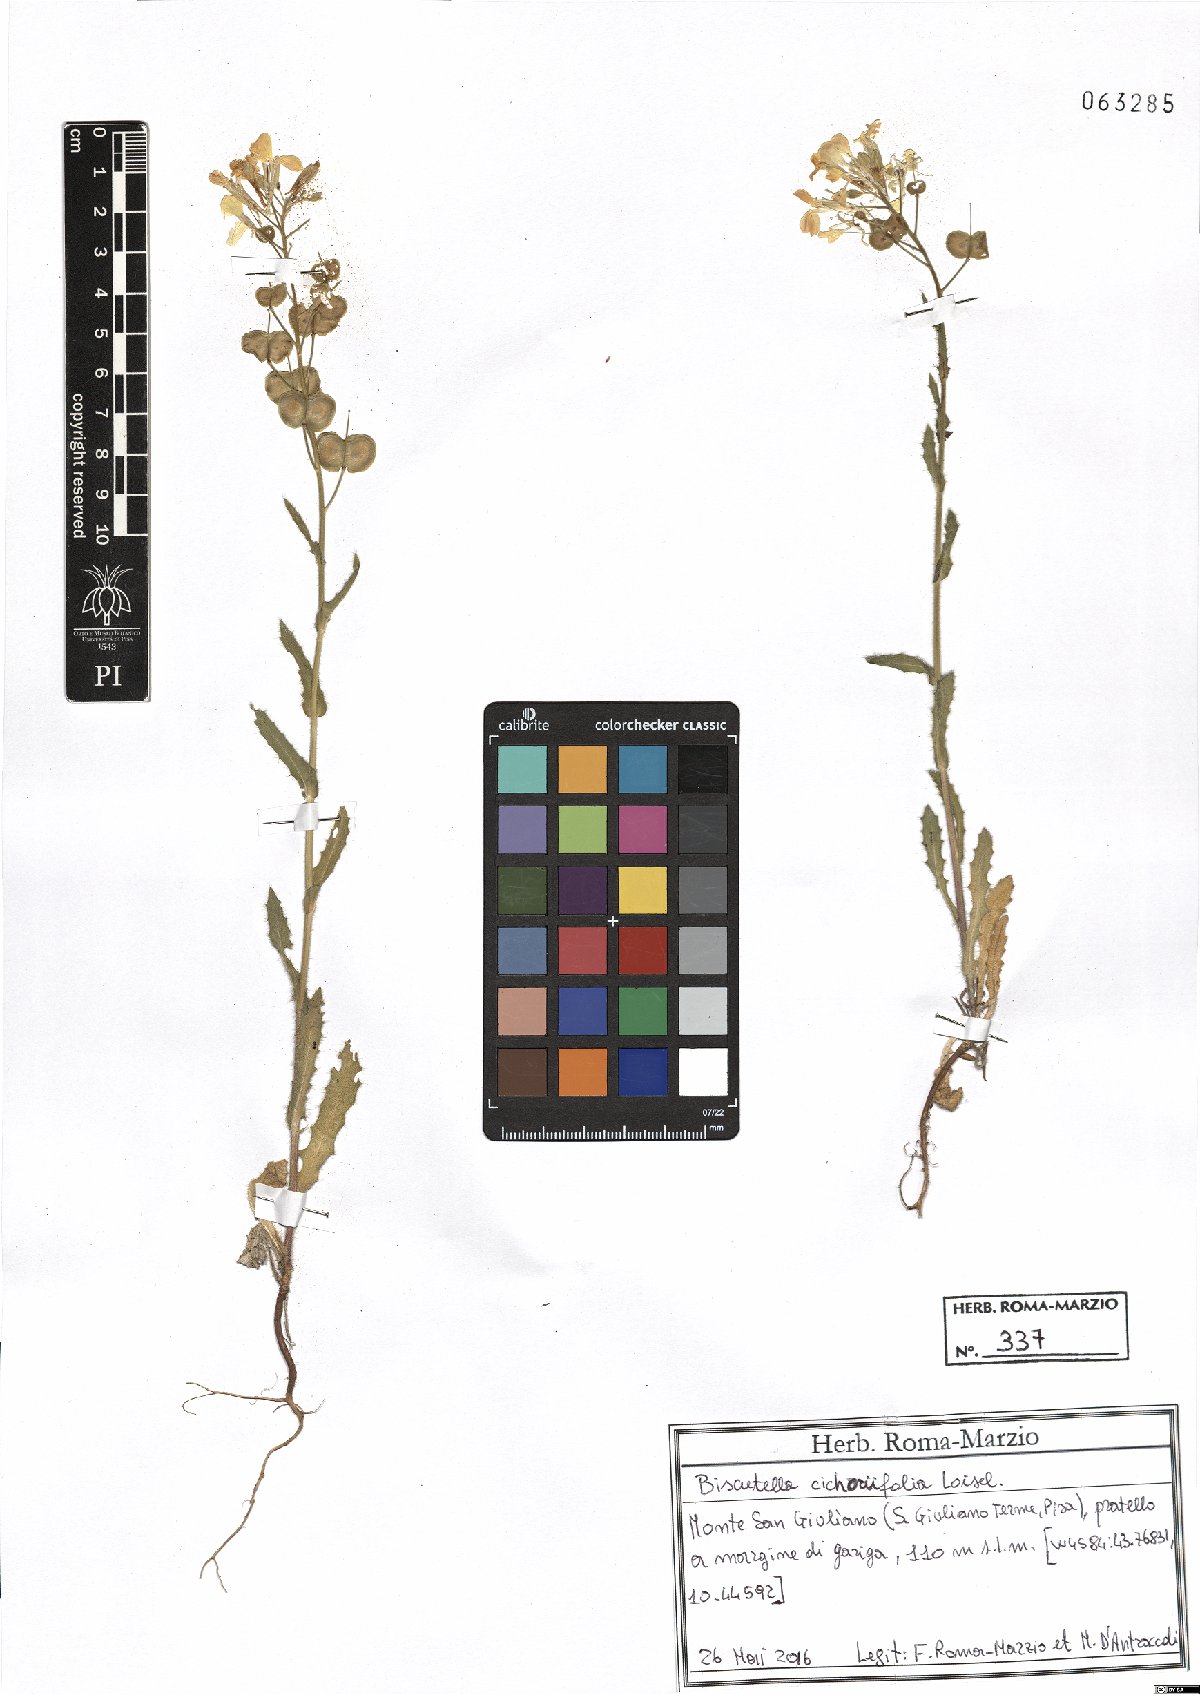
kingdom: Plantae
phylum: Tracheophyta
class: Magnoliopsida
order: Brassicales
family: Brassicaceae
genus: Biscutella
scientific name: Biscutella cichoriifolia
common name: Chicory-leaf buckler mustard
